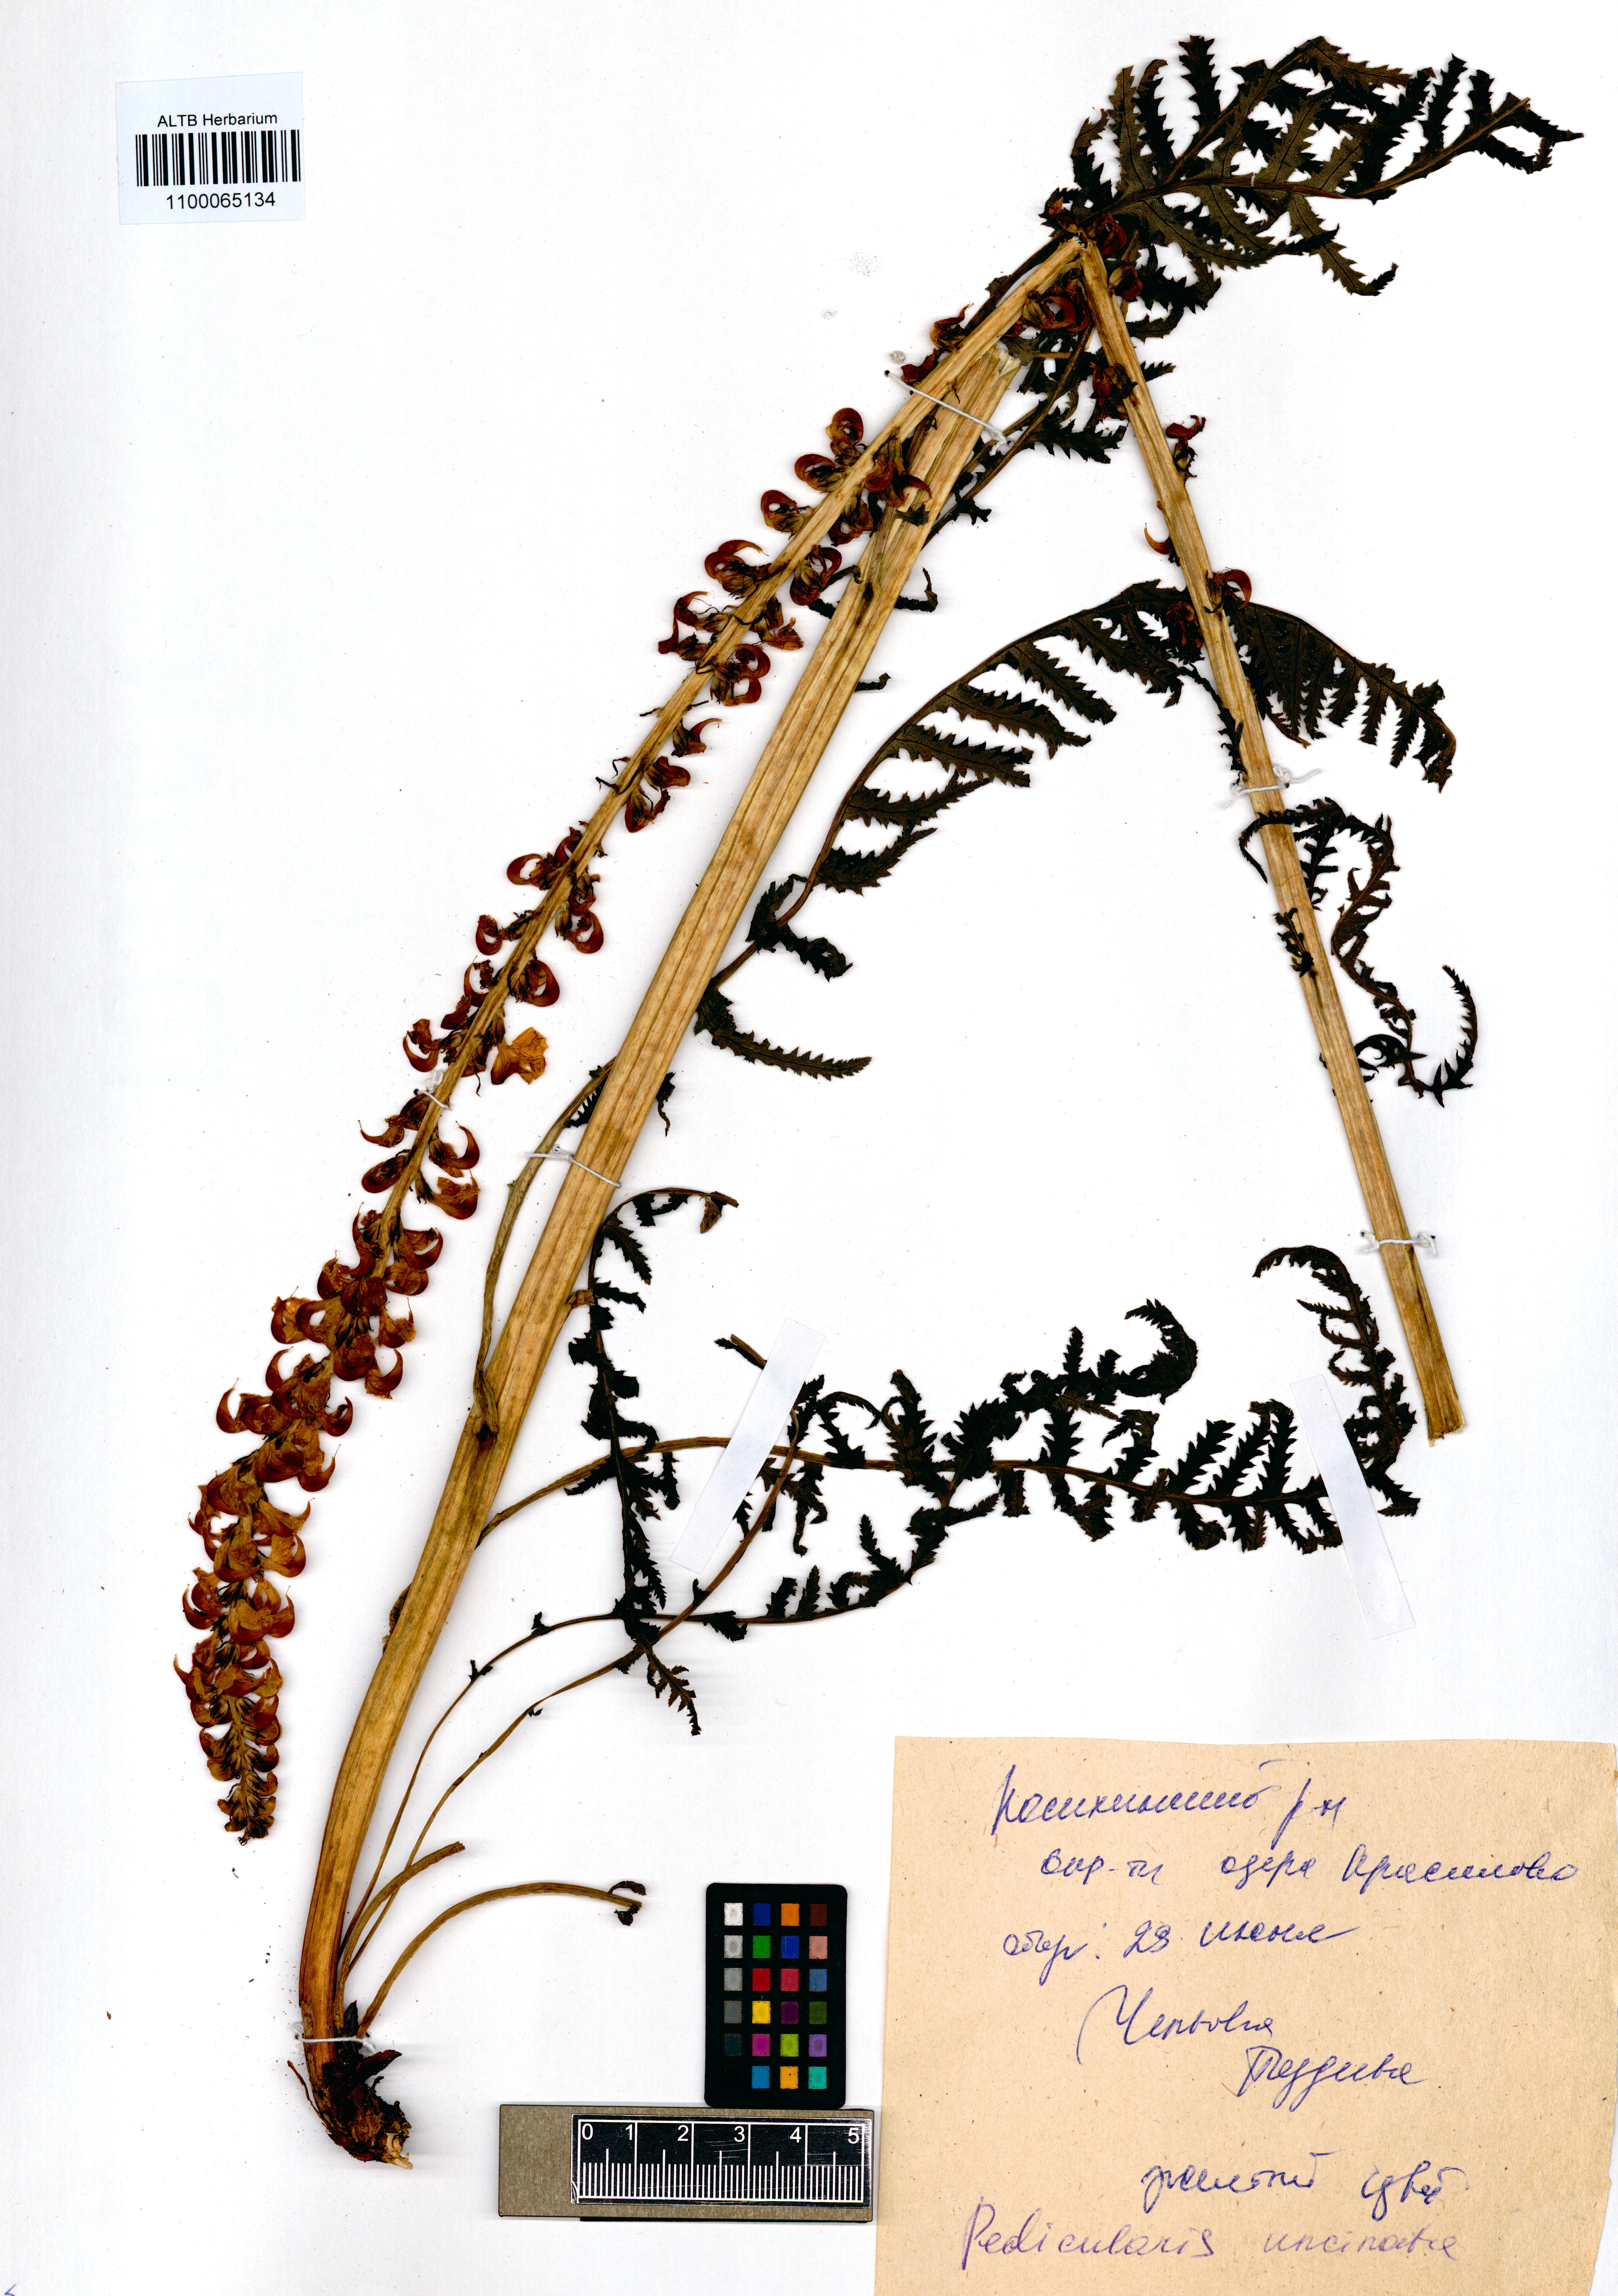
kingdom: Plantae
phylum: Tracheophyta
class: Magnoliopsida
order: Lamiales
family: Orobanchaceae
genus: Pedicularis
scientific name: Pedicularis incarnata
